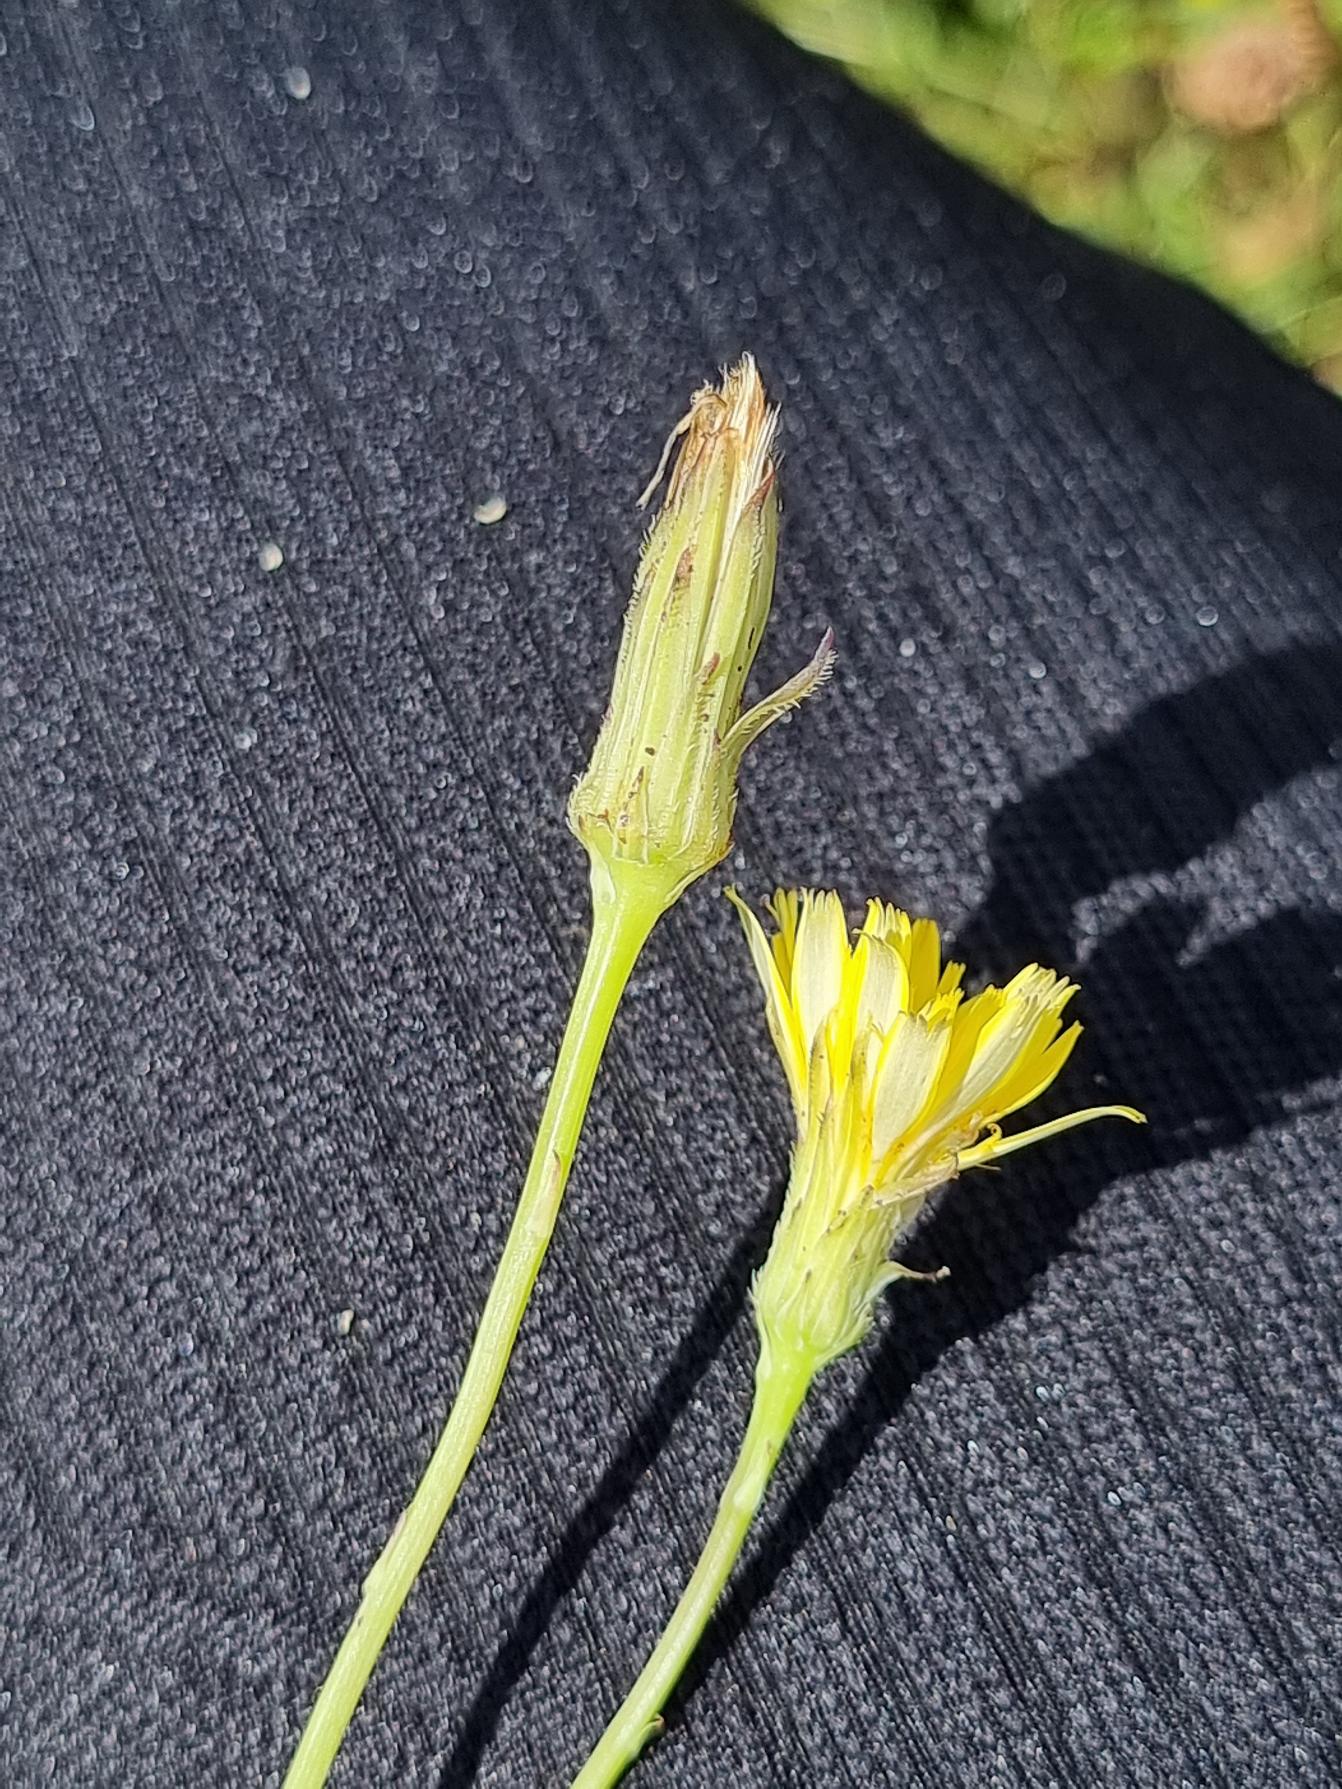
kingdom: Plantae
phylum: Tracheophyta
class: Magnoliopsida
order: Asterales
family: Asteraceae
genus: Hypochaeris
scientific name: Hypochaeris radicata
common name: Almindelig kongepen
